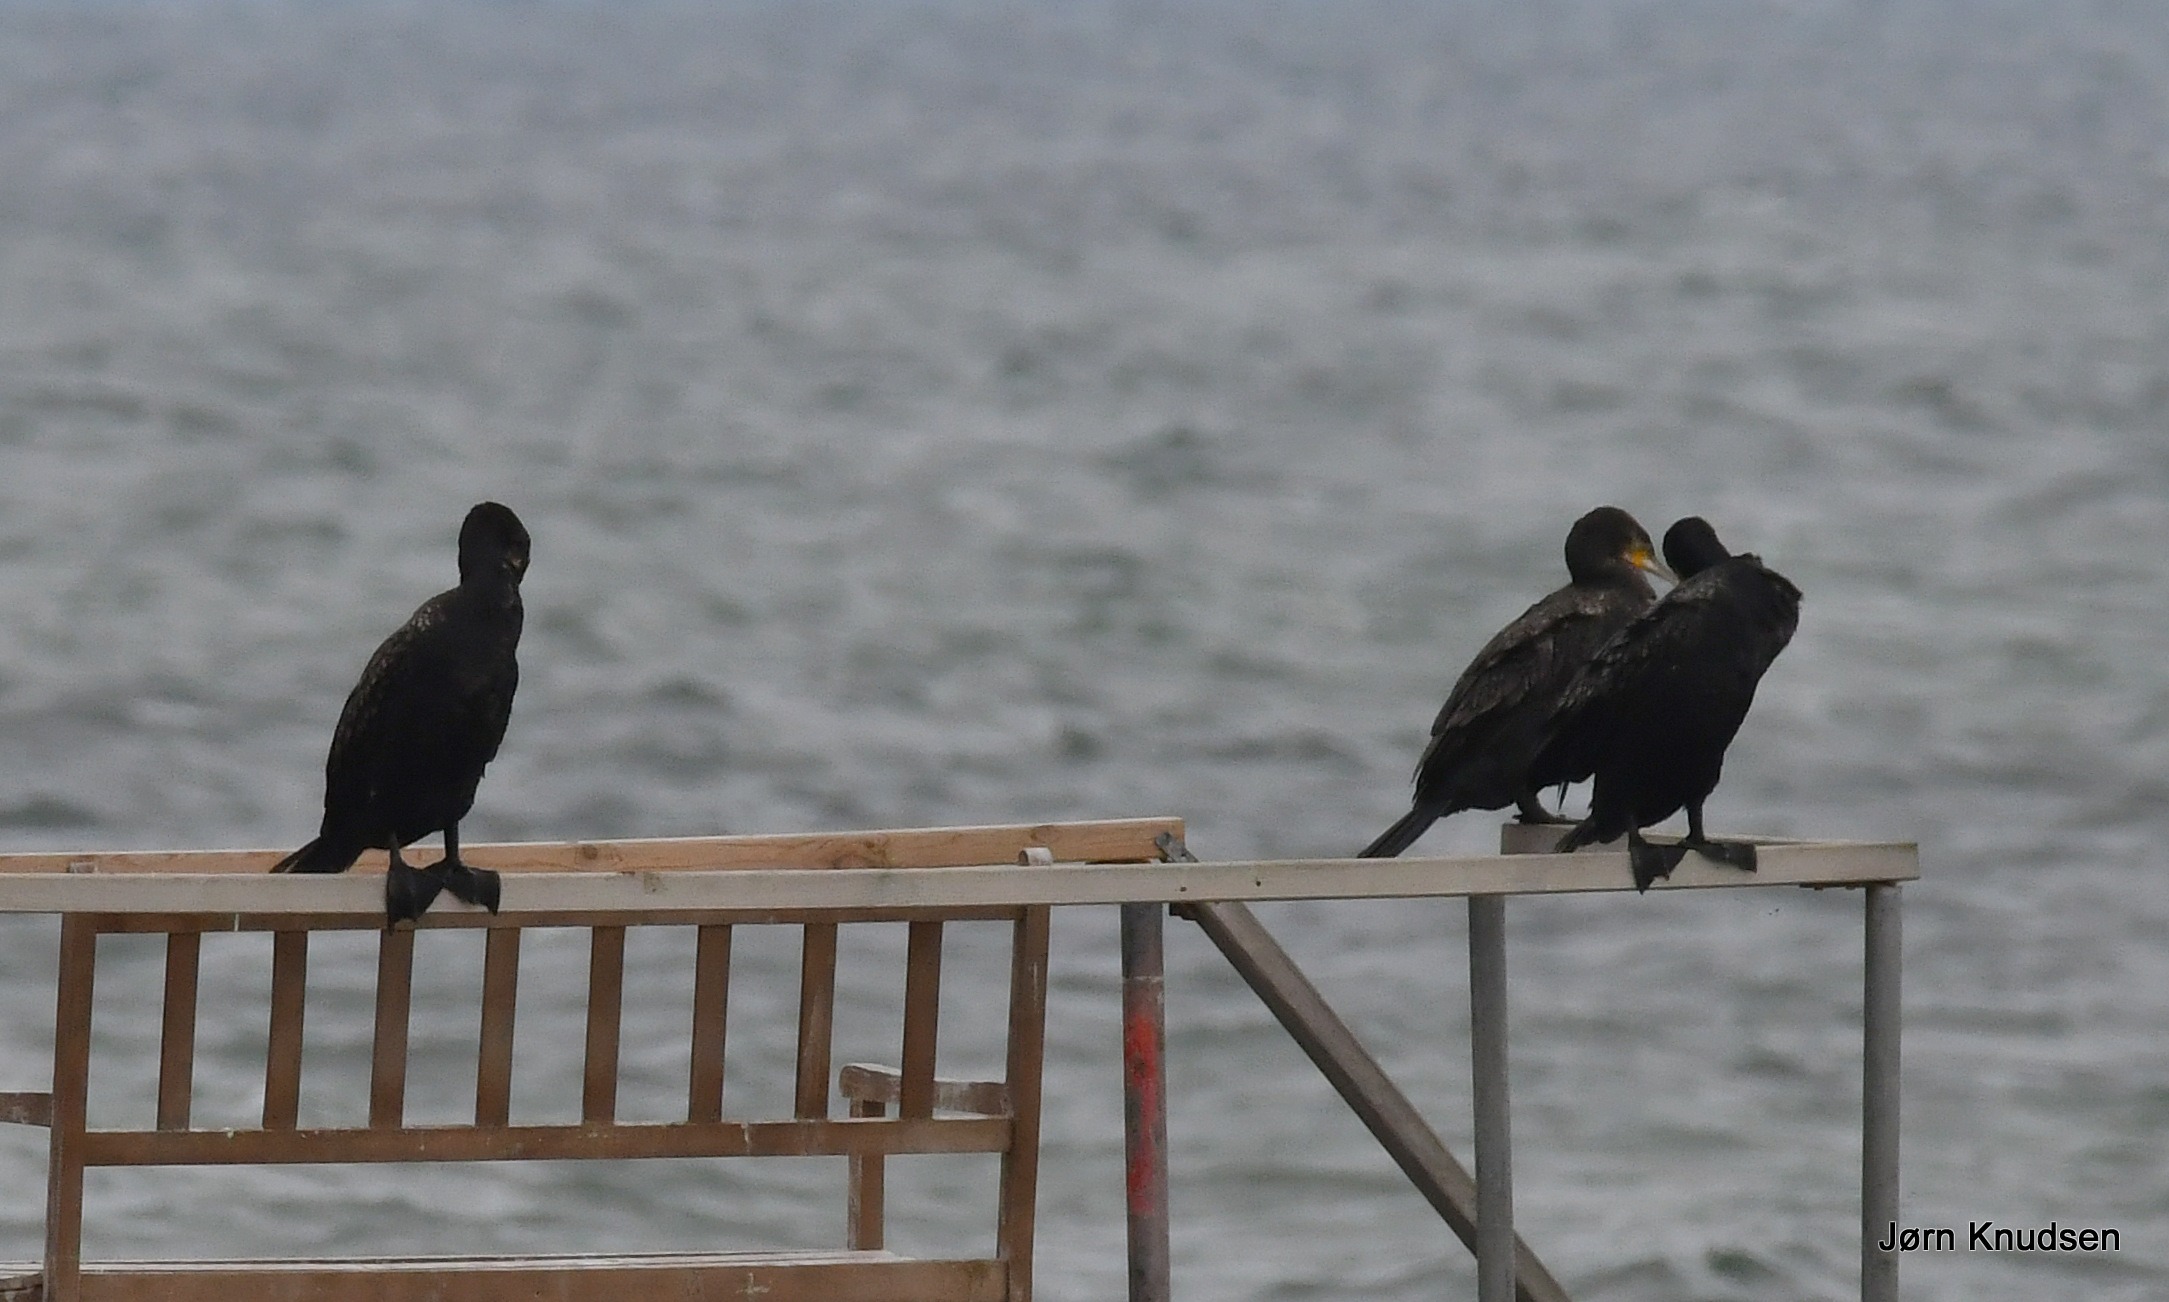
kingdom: Animalia
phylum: Chordata
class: Aves
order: Suliformes
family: Phalacrocoracidae
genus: Phalacrocorax
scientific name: Phalacrocorax carbo
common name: Skarv
